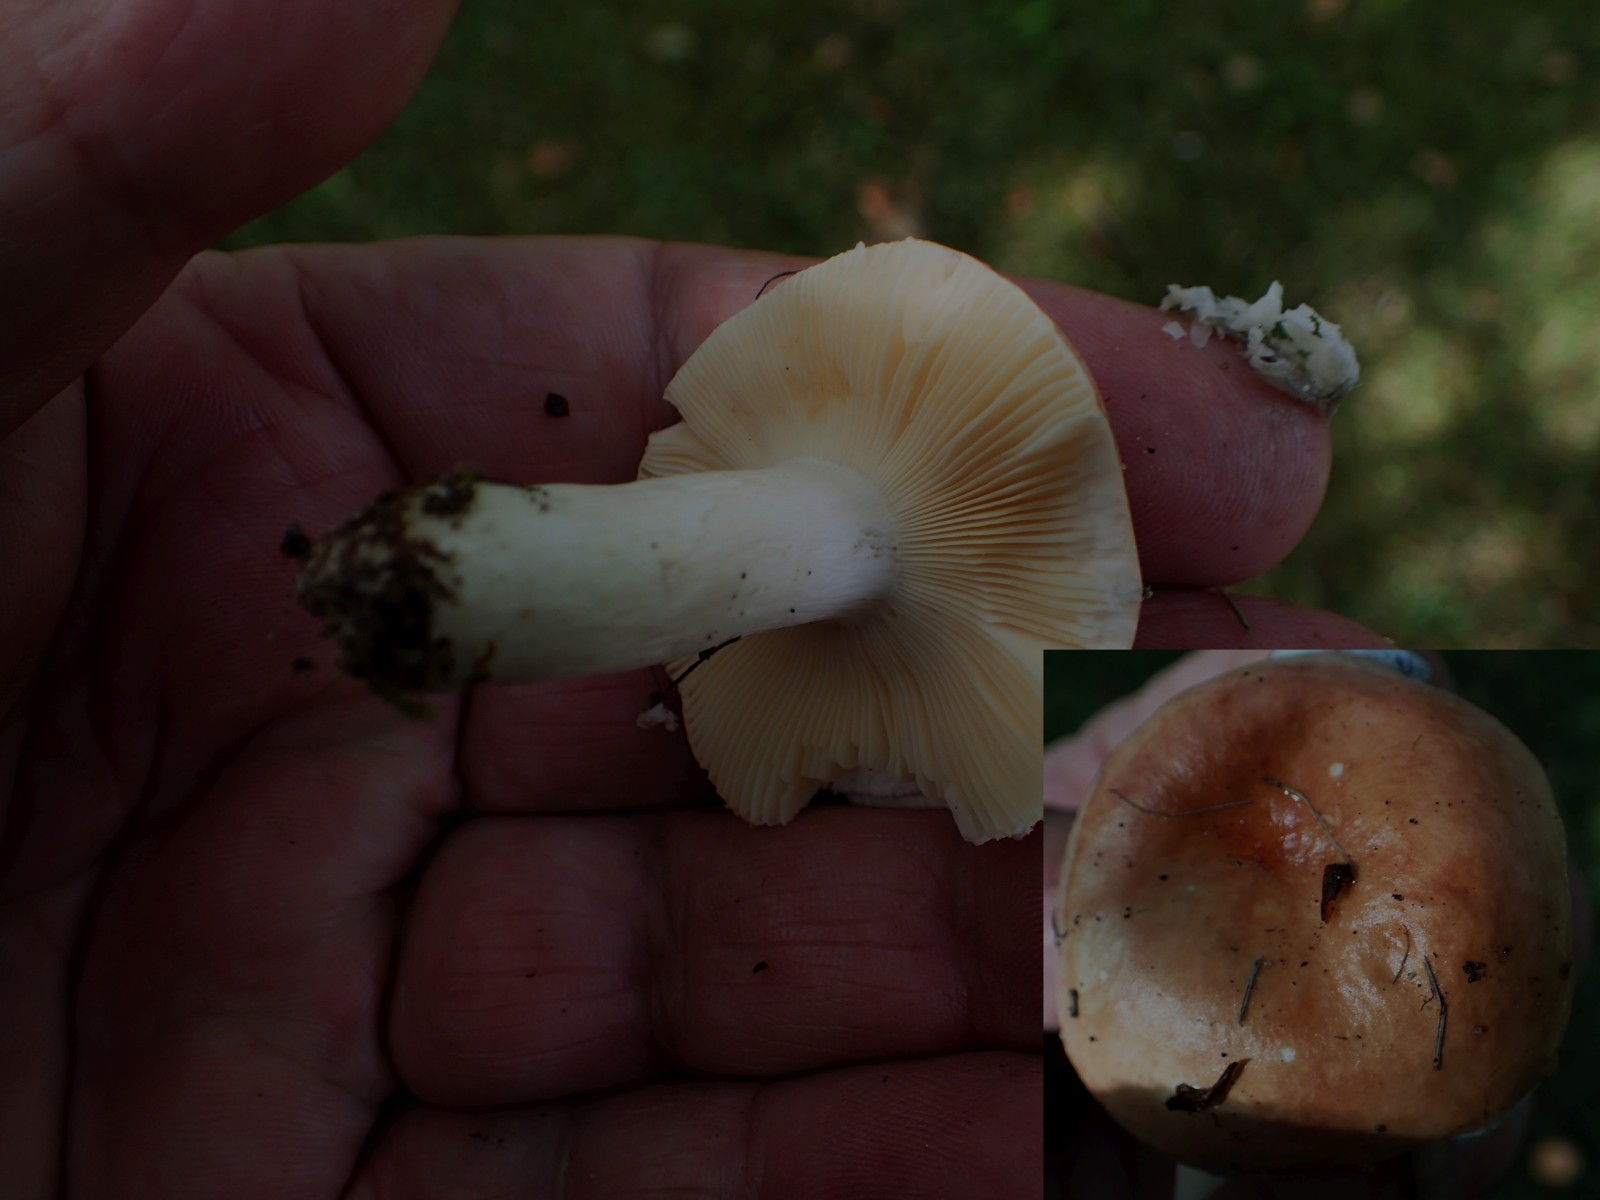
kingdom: Fungi
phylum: Basidiomycota
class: Agaricomycetes
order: Russulales
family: Russulaceae
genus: Russula
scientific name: Russula
